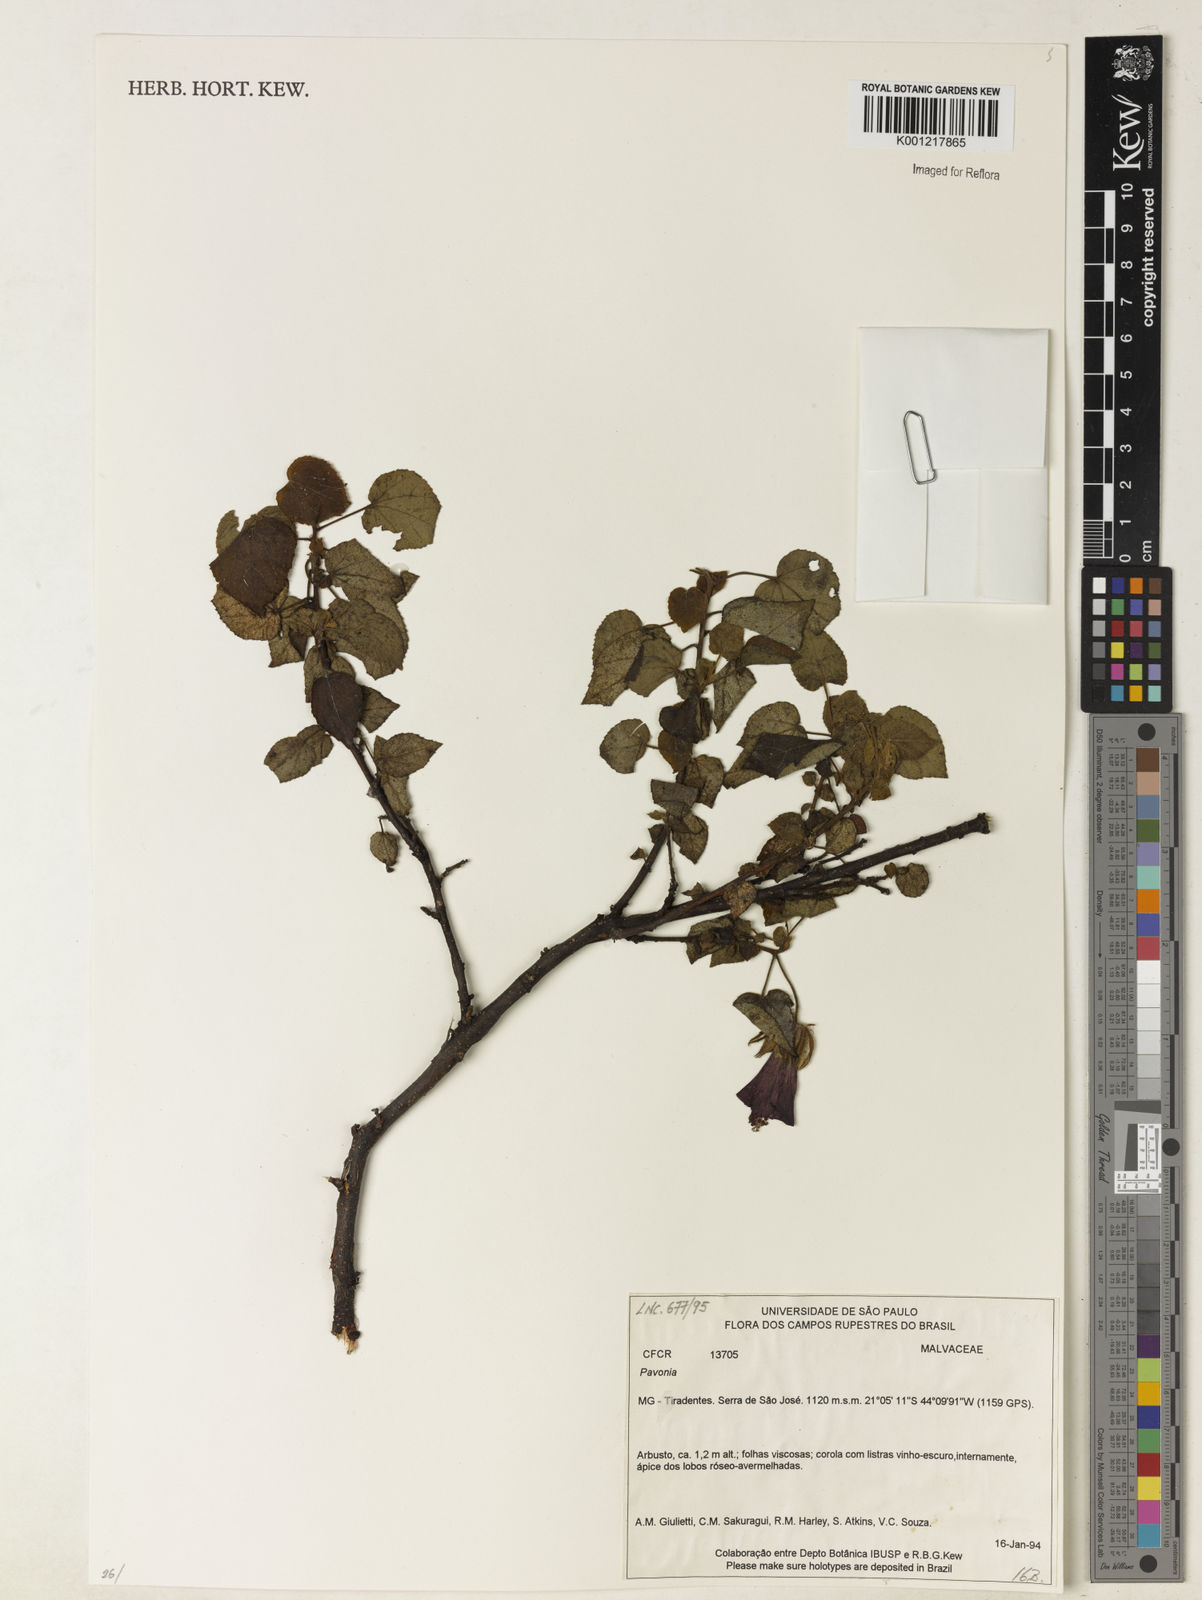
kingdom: Plantae
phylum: Tracheophyta
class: Magnoliopsida
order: Malvales
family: Malvaceae
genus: Pavonia
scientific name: Pavonia
